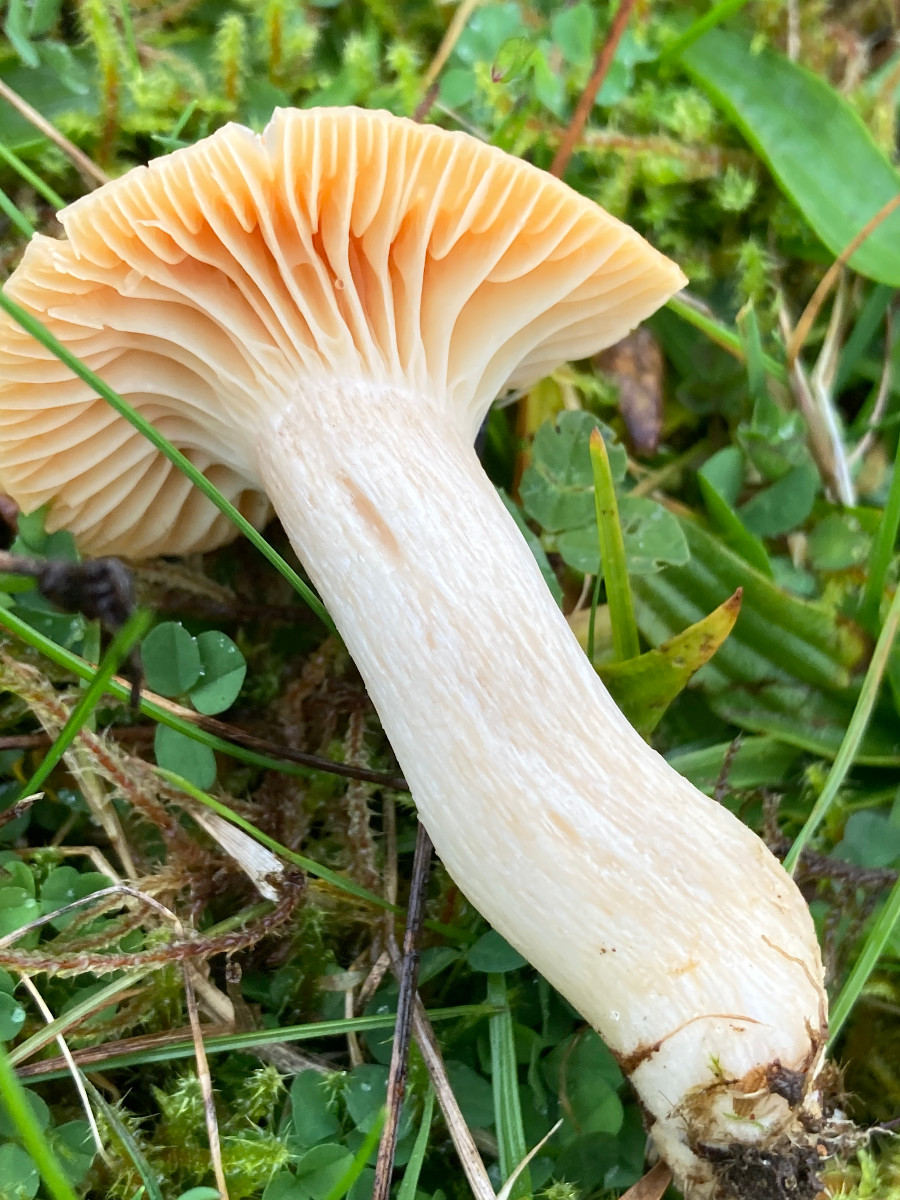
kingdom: Fungi
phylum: Basidiomycota
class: Agaricomycetes
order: Agaricales
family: Hygrophoraceae
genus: Cuphophyllus
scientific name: Cuphophyllus pratensis
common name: eng-vokshat
